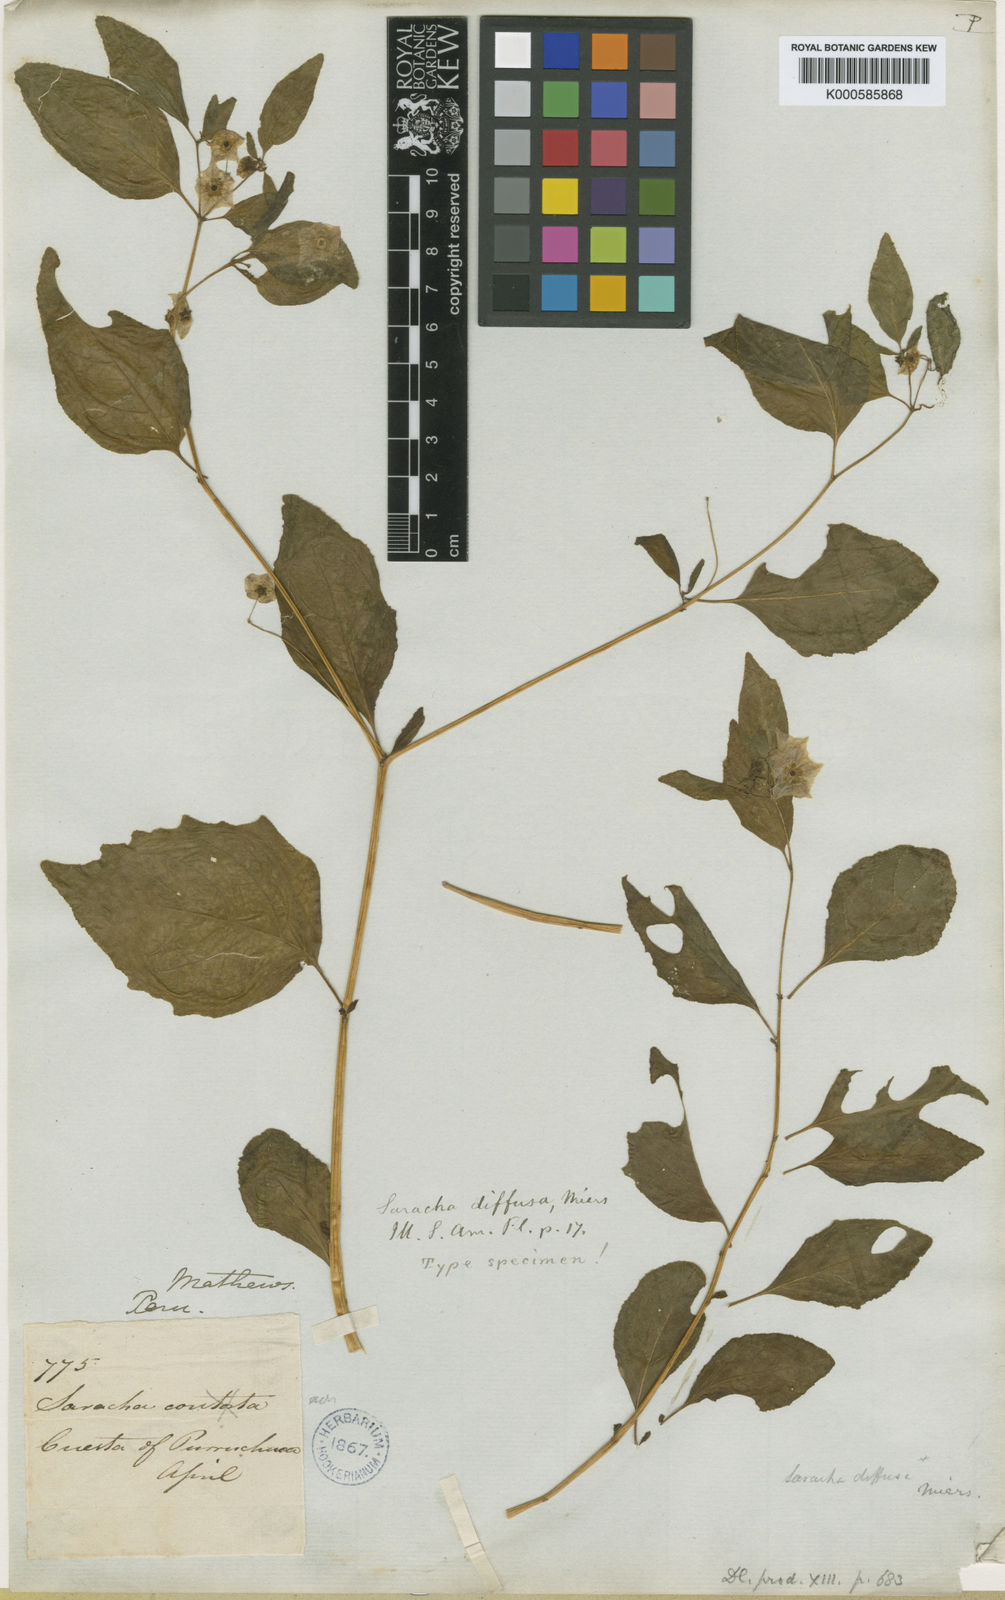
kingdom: Plantae
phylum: Tracheophyta
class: Magnoliopsida
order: Solanales
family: Solanaceae
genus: Saracha
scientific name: Saracha
